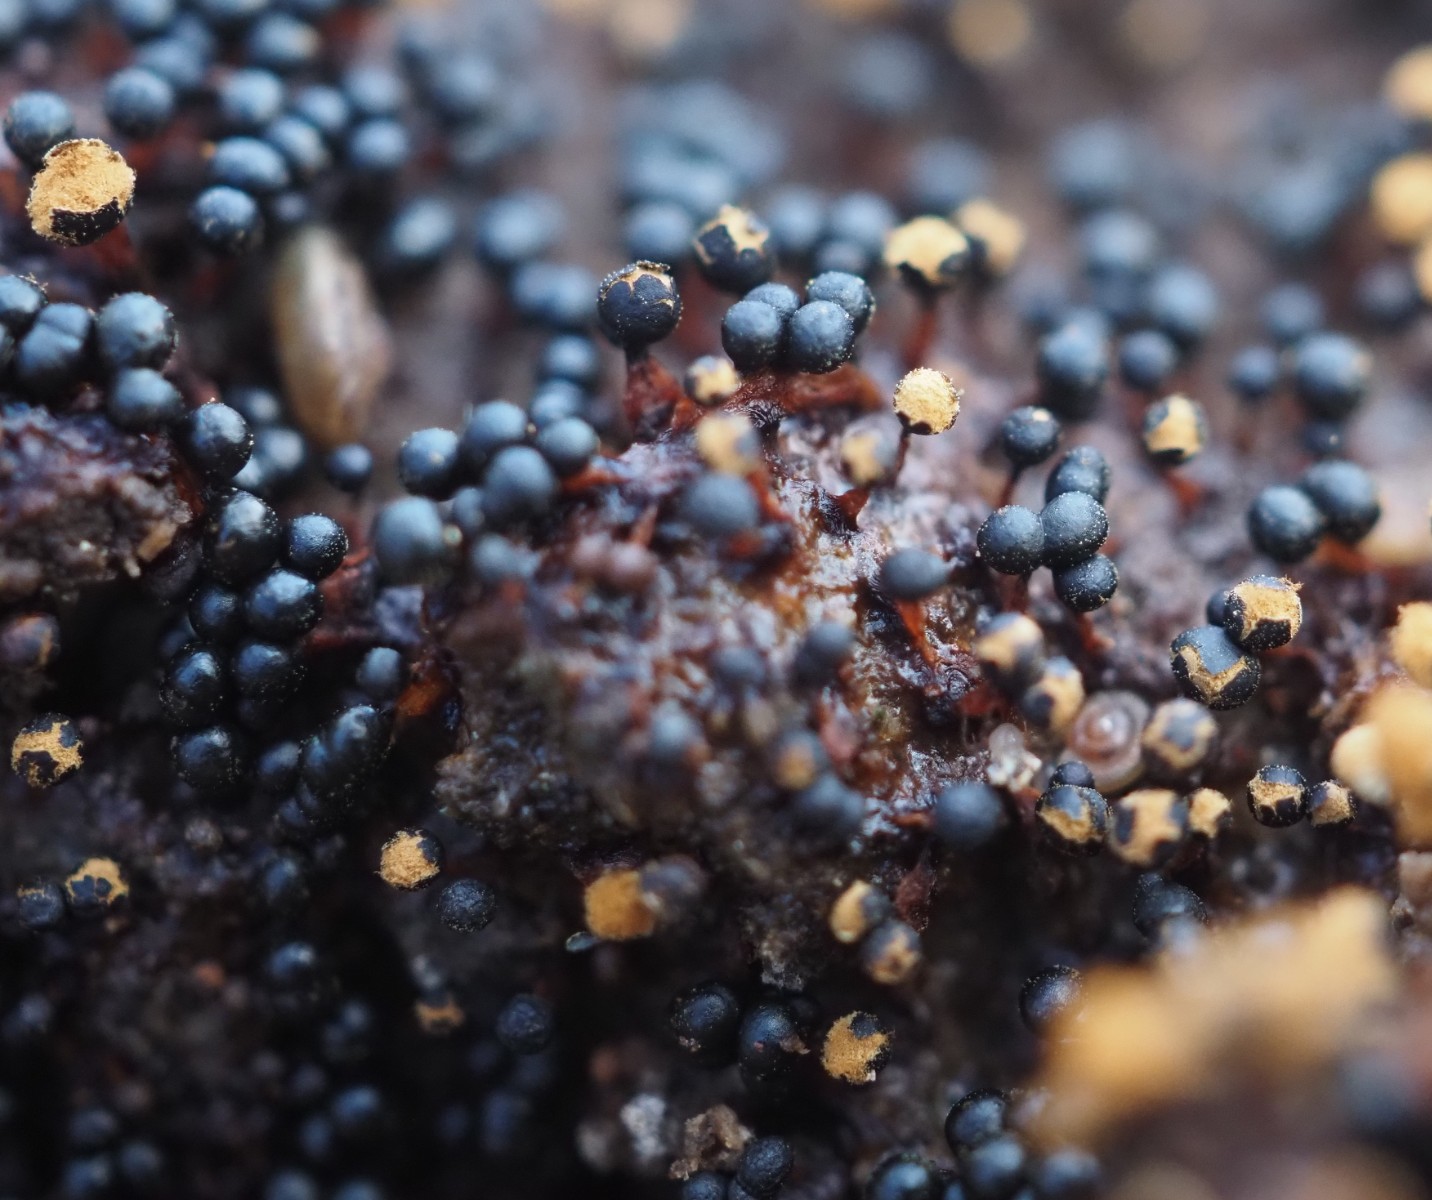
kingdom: Protozoa
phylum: Mycetozoa
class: Myxomycetes
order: Trichiales
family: Trichiaceae
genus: Metatrichia
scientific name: Metatrichia floriformis
